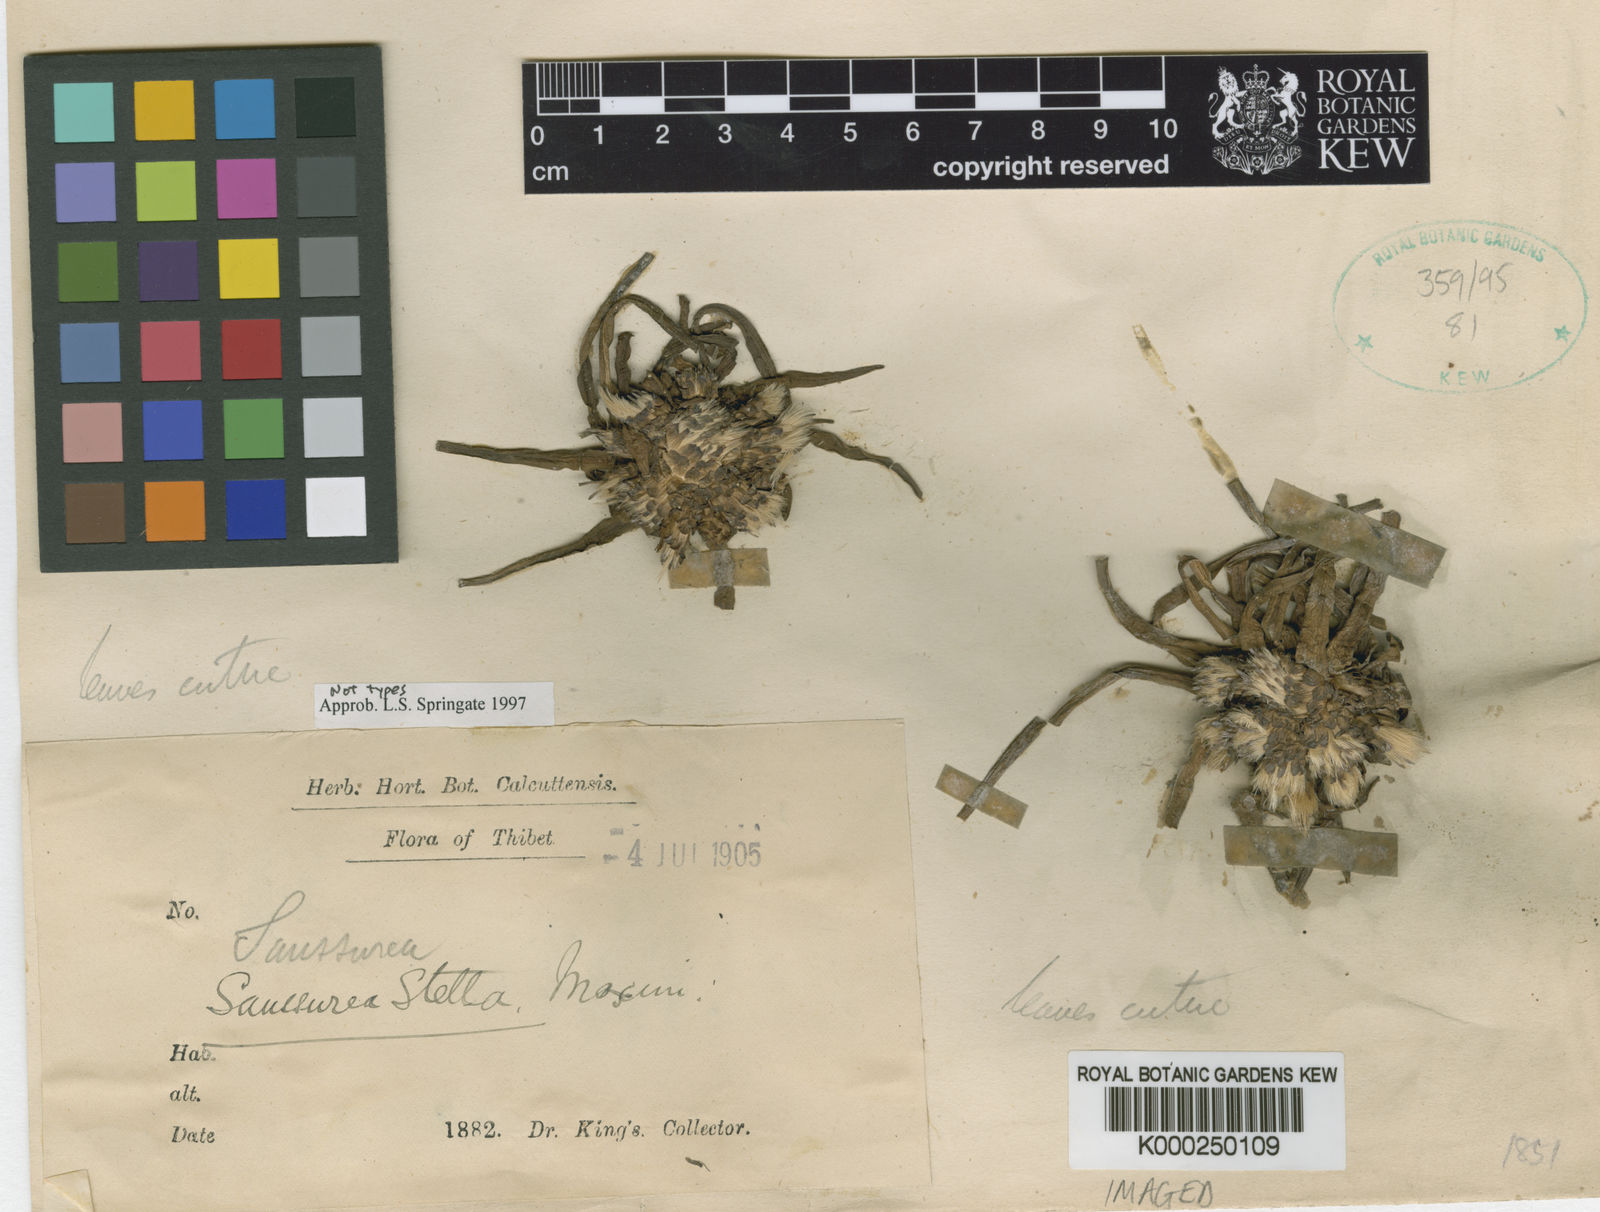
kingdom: Plantae
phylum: Tracheophyta
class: Magnoliopsida
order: Asterales
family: Asteraceae
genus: Saussurea
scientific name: Saussurea stella
